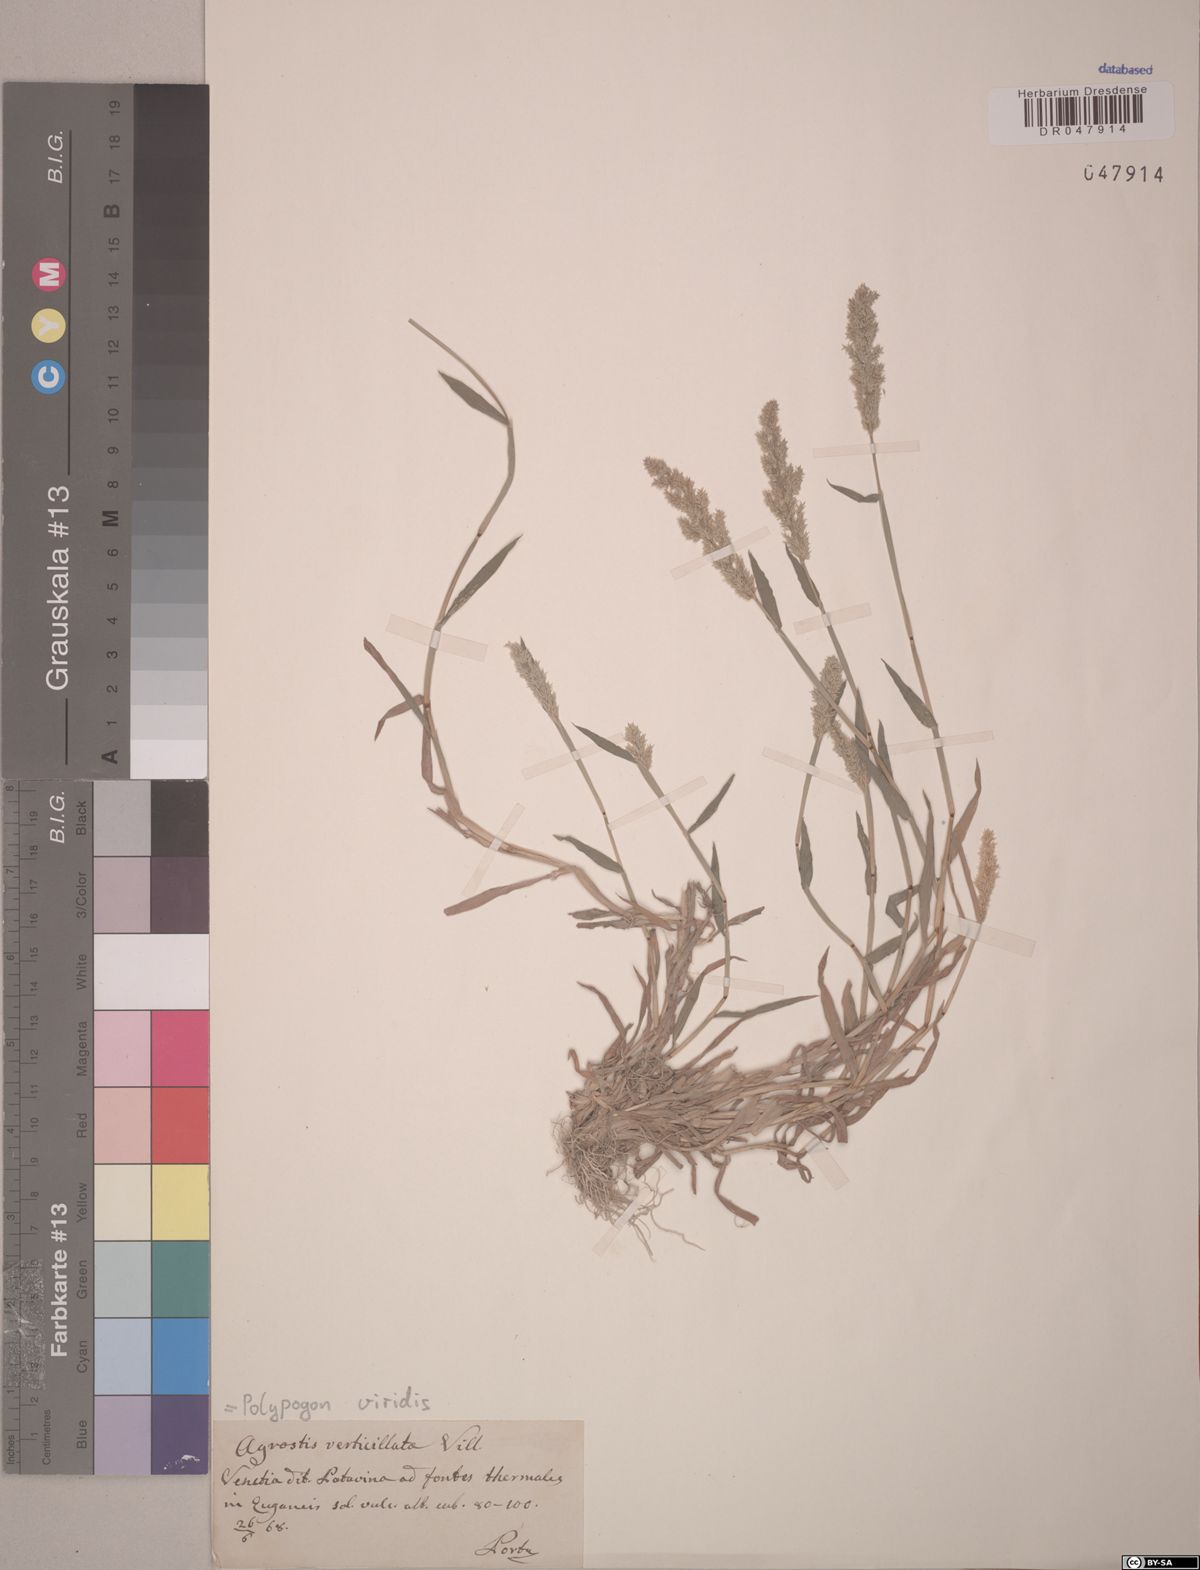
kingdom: Plantae
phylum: Tracheophyta
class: Liliopsida
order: Poales
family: Poaceae
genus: Polypogon
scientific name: Polypogon viridis
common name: Water bent
